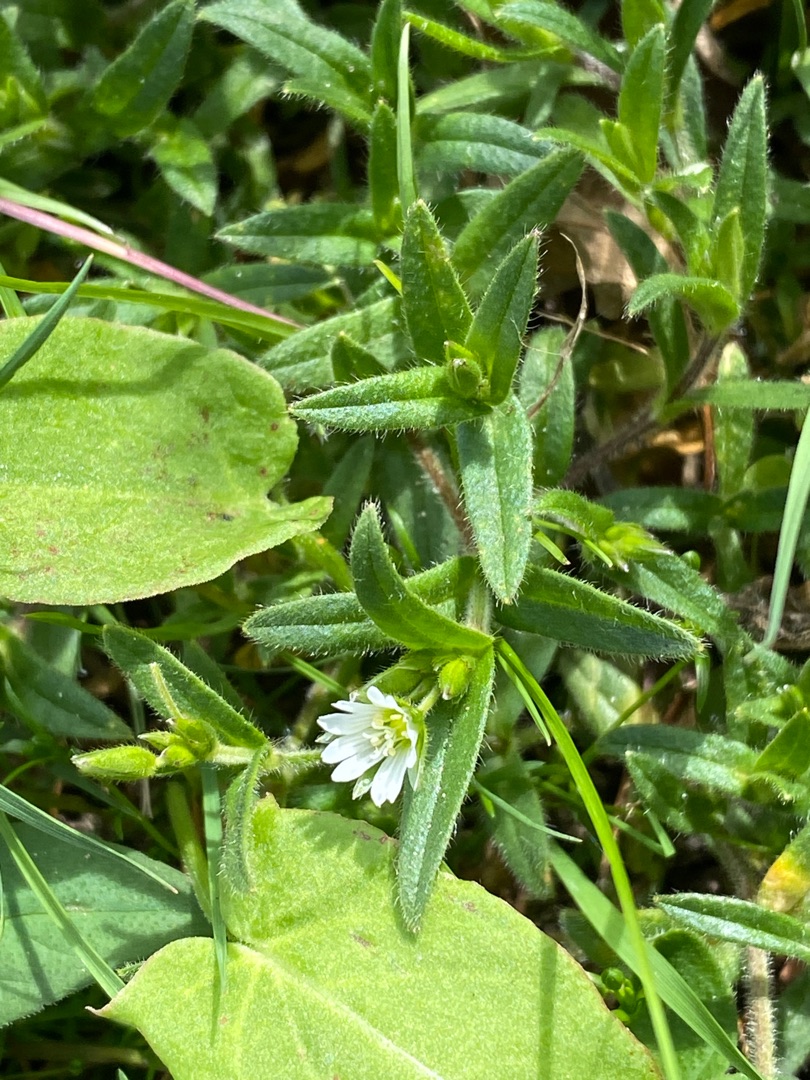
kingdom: Plantae
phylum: Tracheophyta
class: Magnoliopsida
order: Caryophyllales
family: Caryophyllaceae
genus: Cerastium
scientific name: Cerastium fontanum
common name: Almindelig hønsetarm
